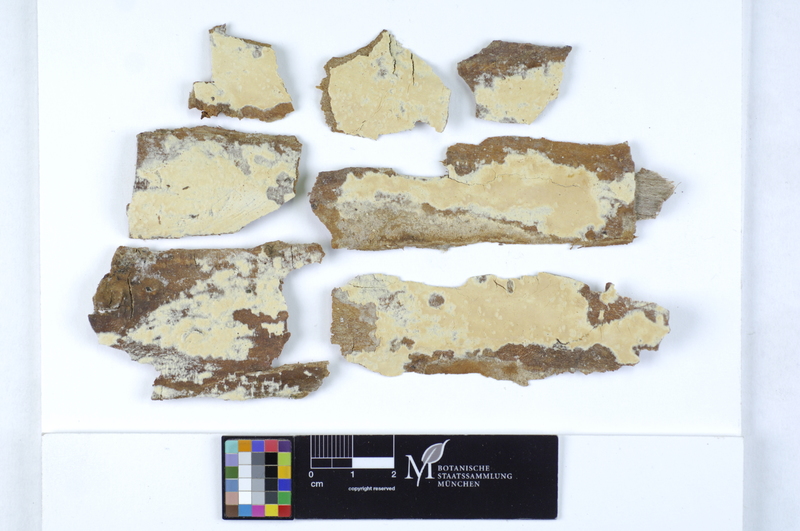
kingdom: Fungi
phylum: Basidiomycota
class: Agaricomycetes
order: Agaricales
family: Physalacriaceae
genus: Cylindrobasidium
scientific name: Cylindrobasidium evolvens
